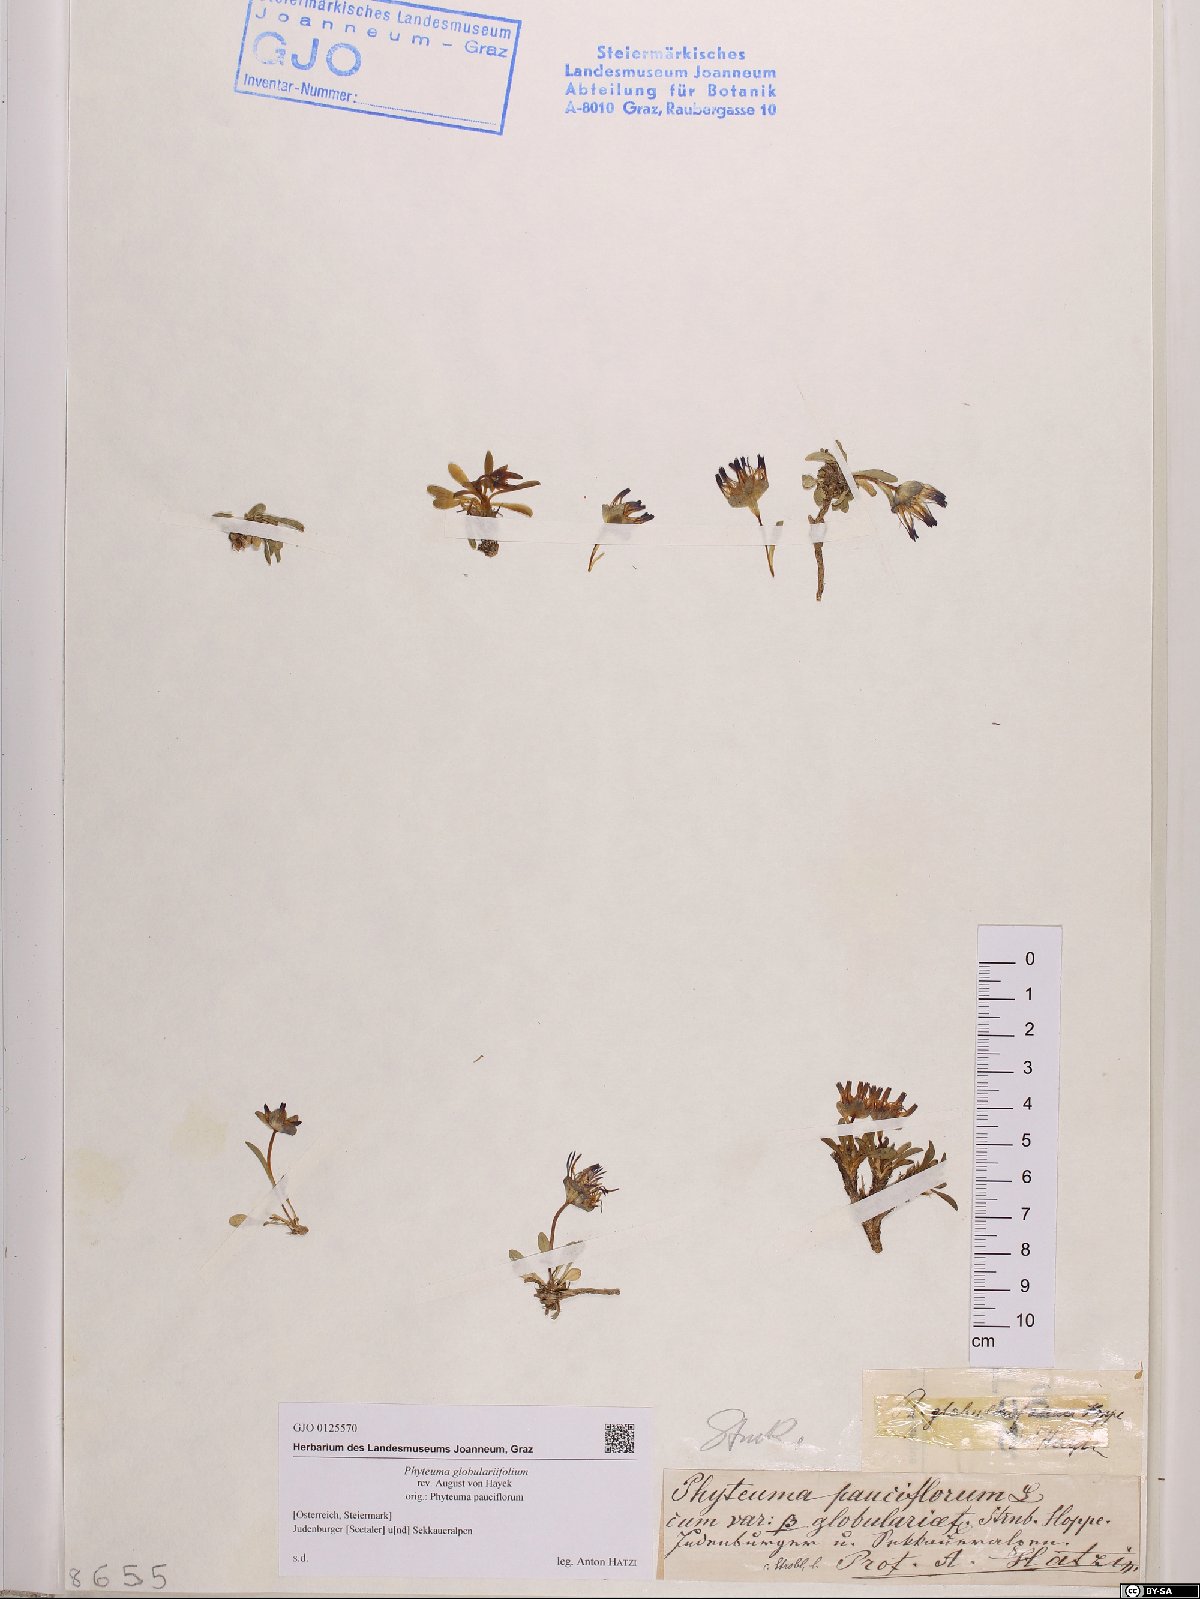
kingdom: Plantae
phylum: Tracheophyta
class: Magnoliopsida
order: Asterales
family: Campanulaceae
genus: Phyteuma
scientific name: Phyteuma globulariifolium
